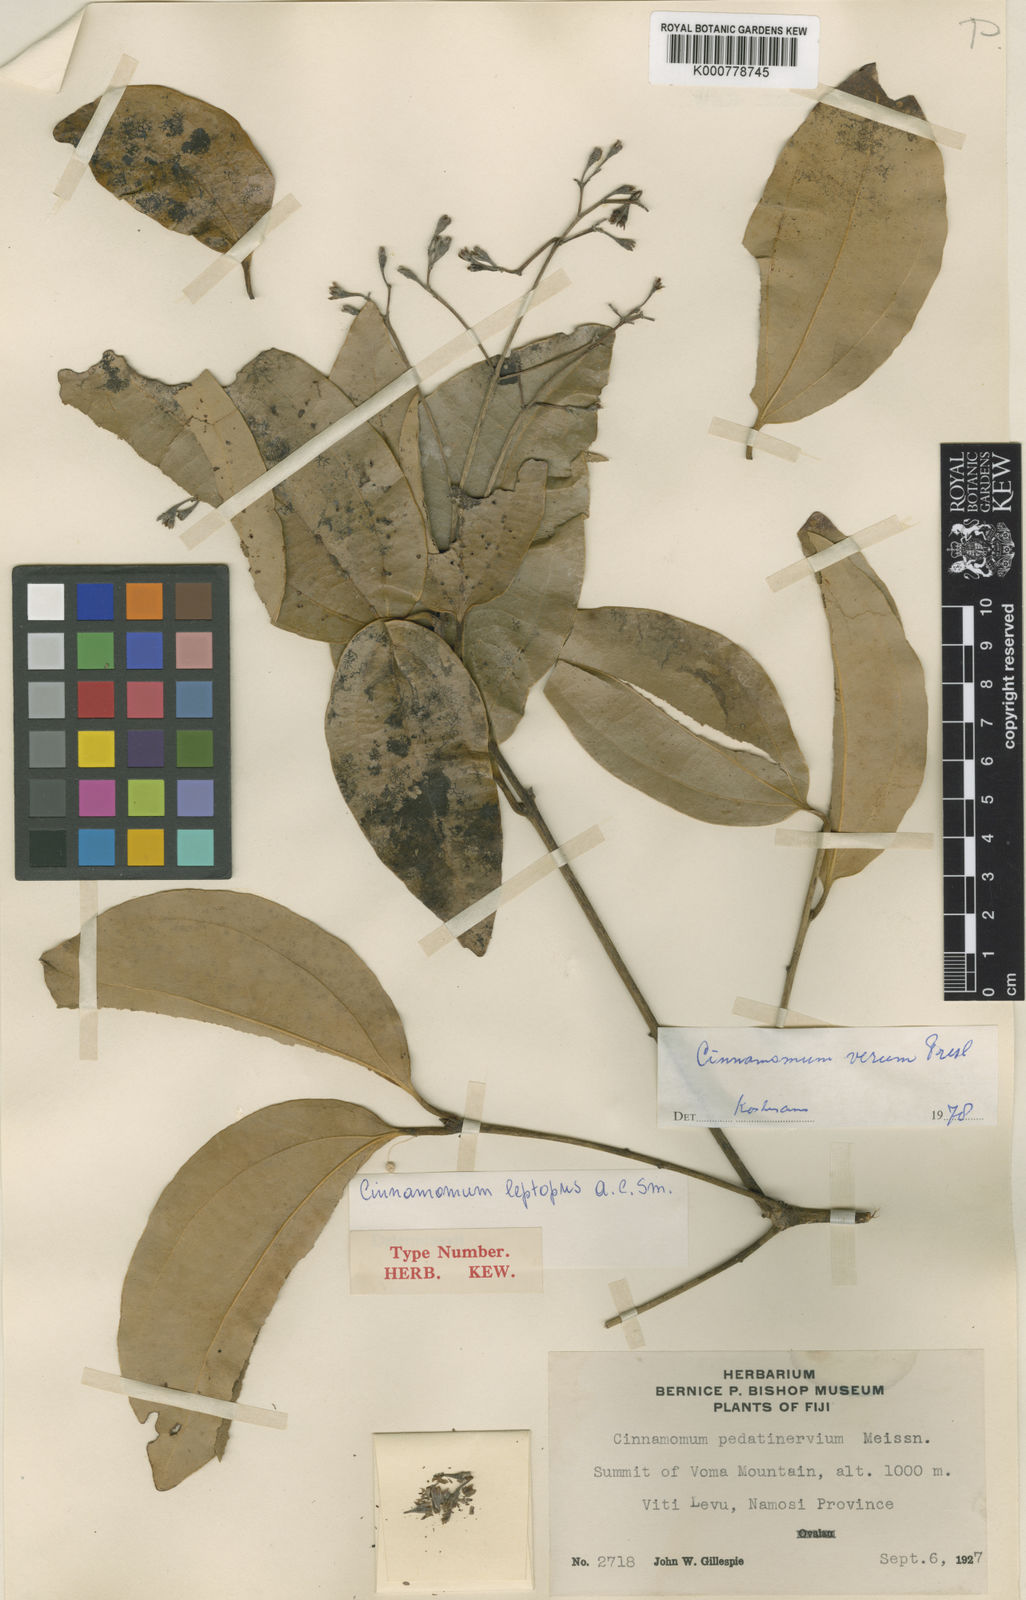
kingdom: Plantae
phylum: Tracheophyta
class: Magnoliopsida
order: Laurales
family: Lauraceae
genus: Cinnamomum
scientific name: Cinnamomum verum
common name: Cinnamon
